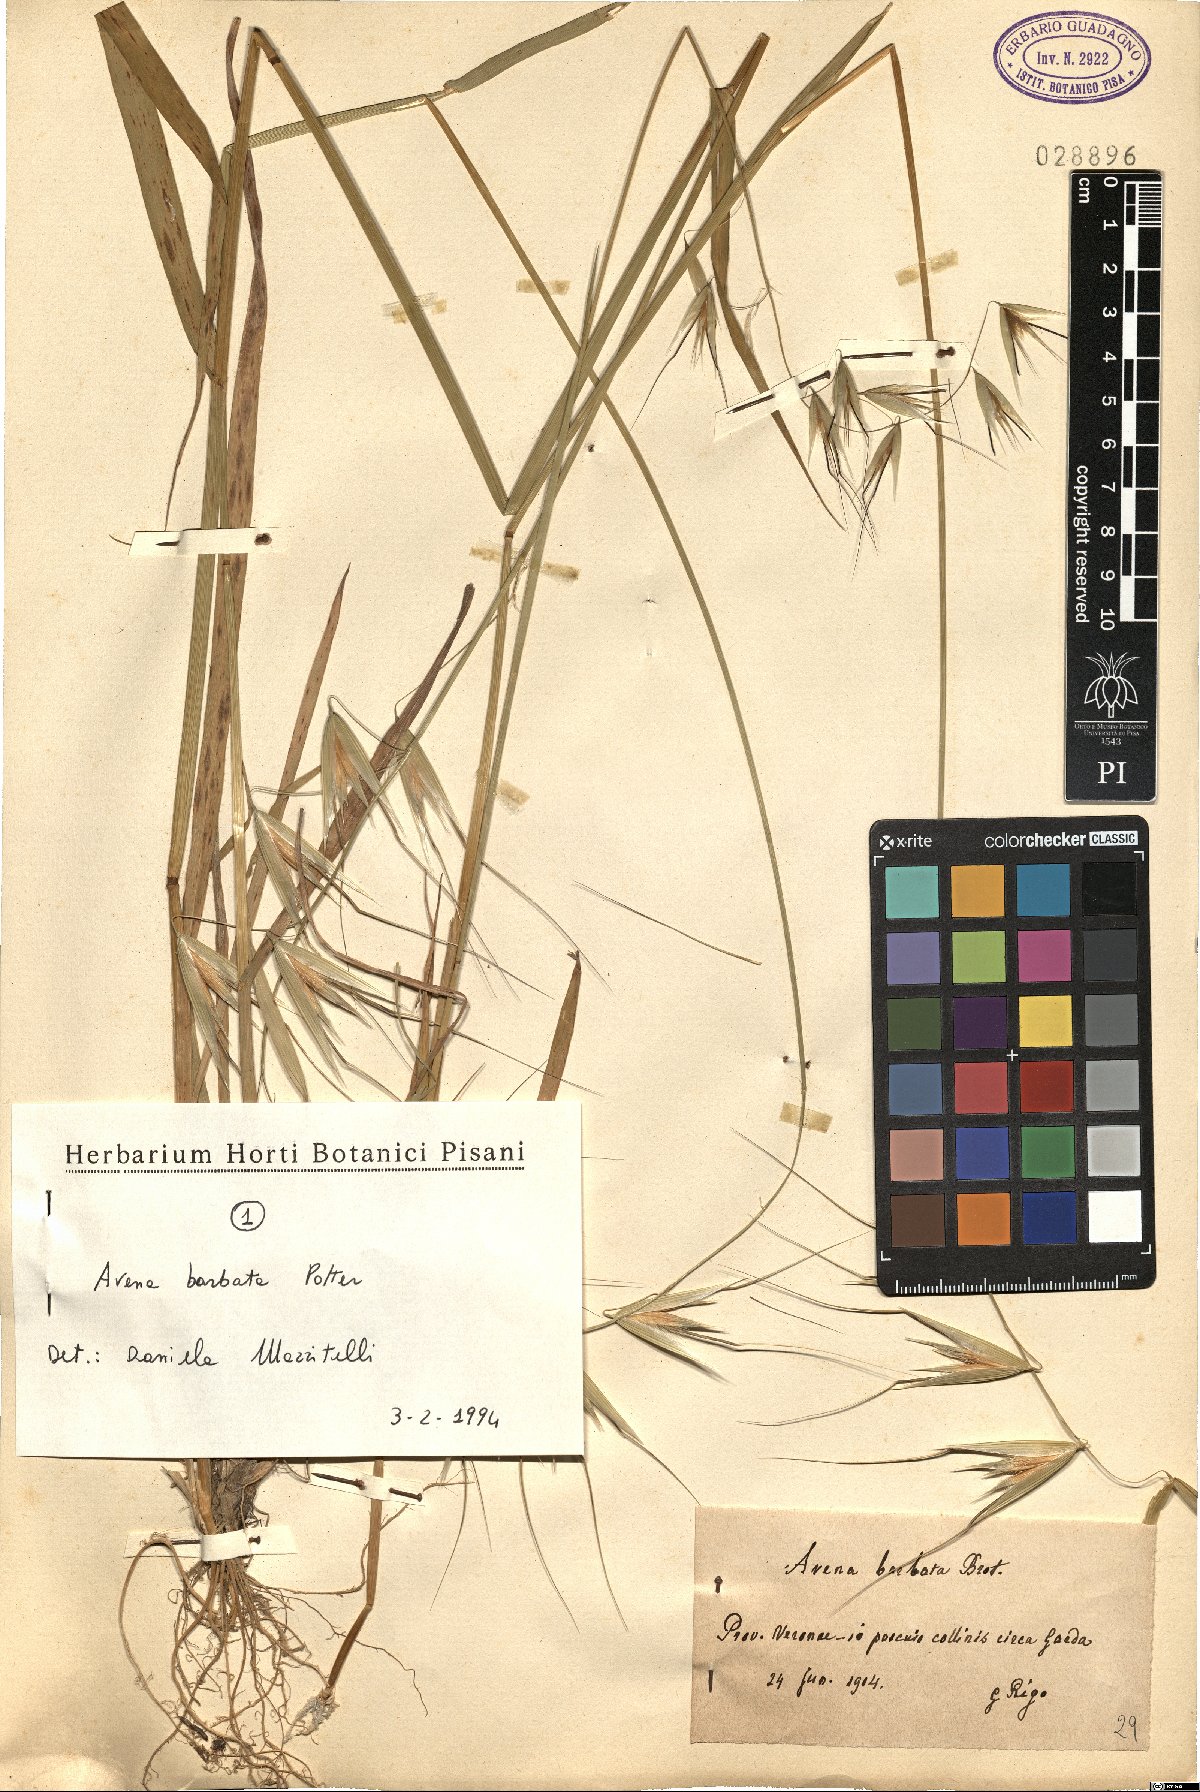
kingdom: Plantae
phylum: Tracheophyta
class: Liliopsida
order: Poales
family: Poaceae
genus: Avena
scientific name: Avena barbata
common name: Slender oat
